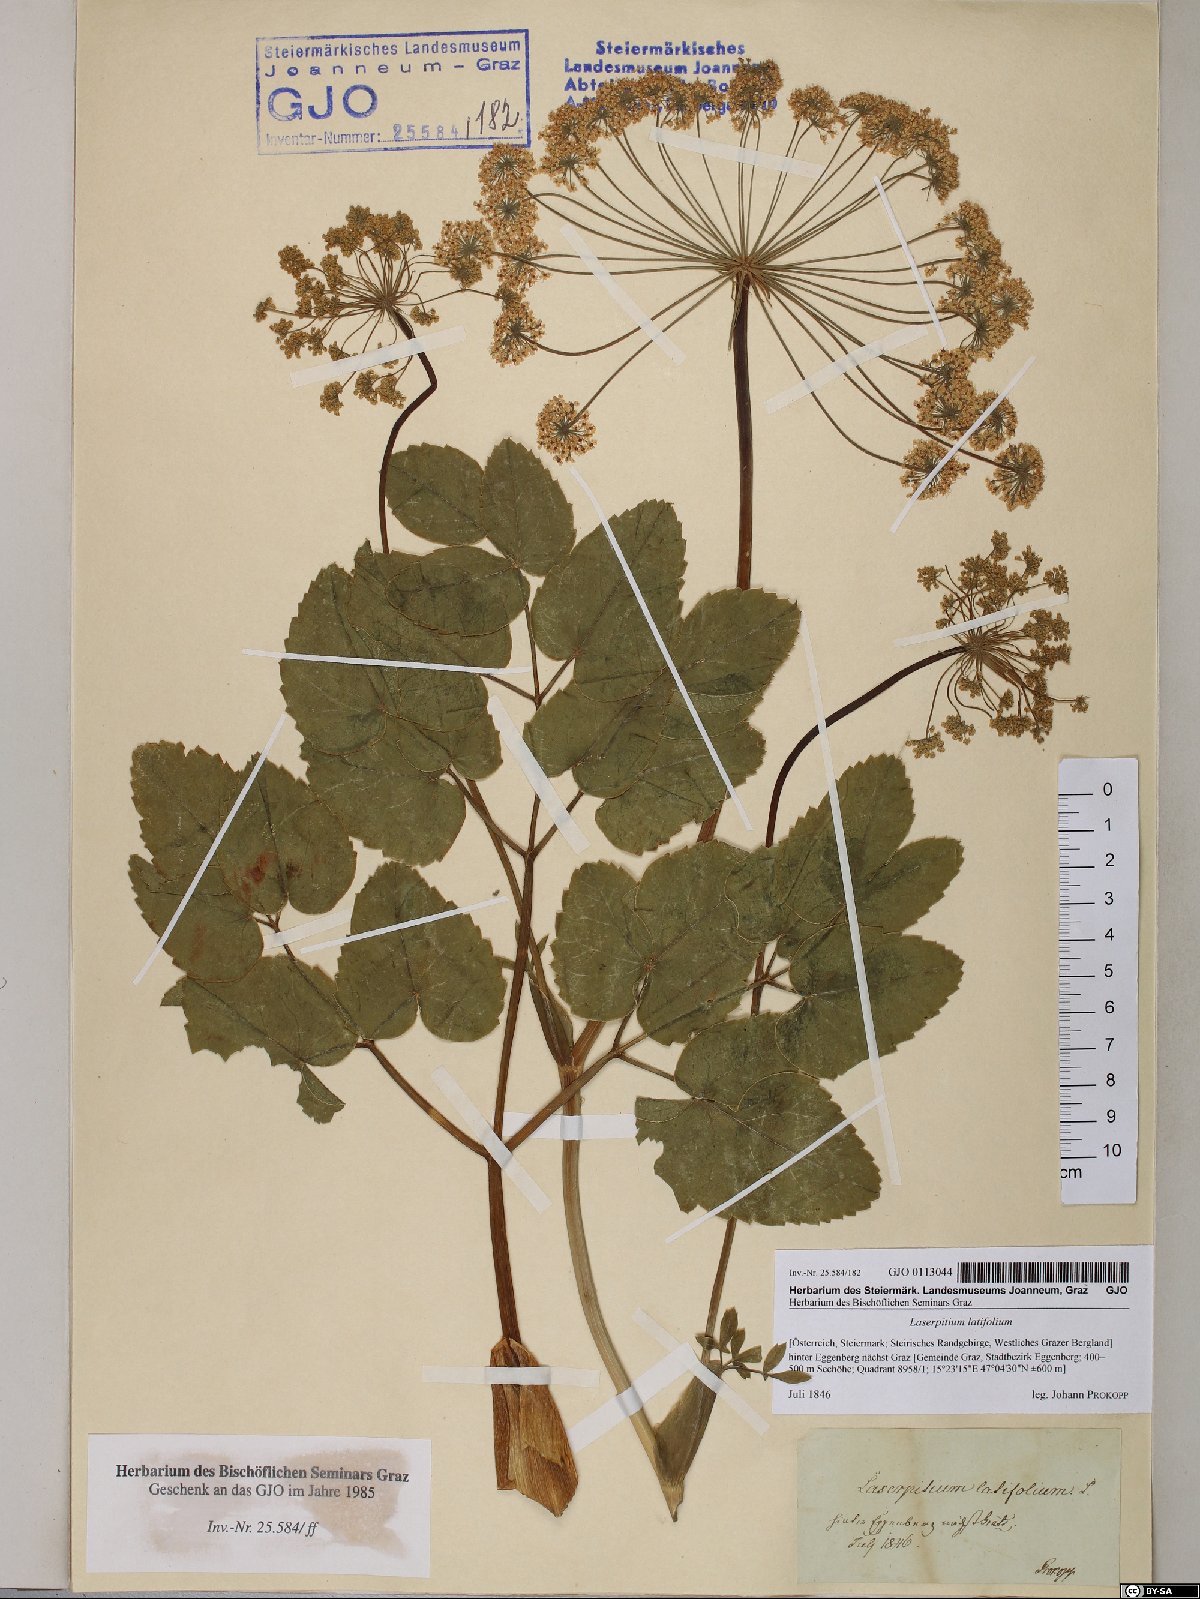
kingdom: Plantae
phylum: Tracheophyta
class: Magnoliopsida
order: Apiales
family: Apiaceae
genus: Laserpitium
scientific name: Laserpitium latifolium
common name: Broadleaf sermountain
